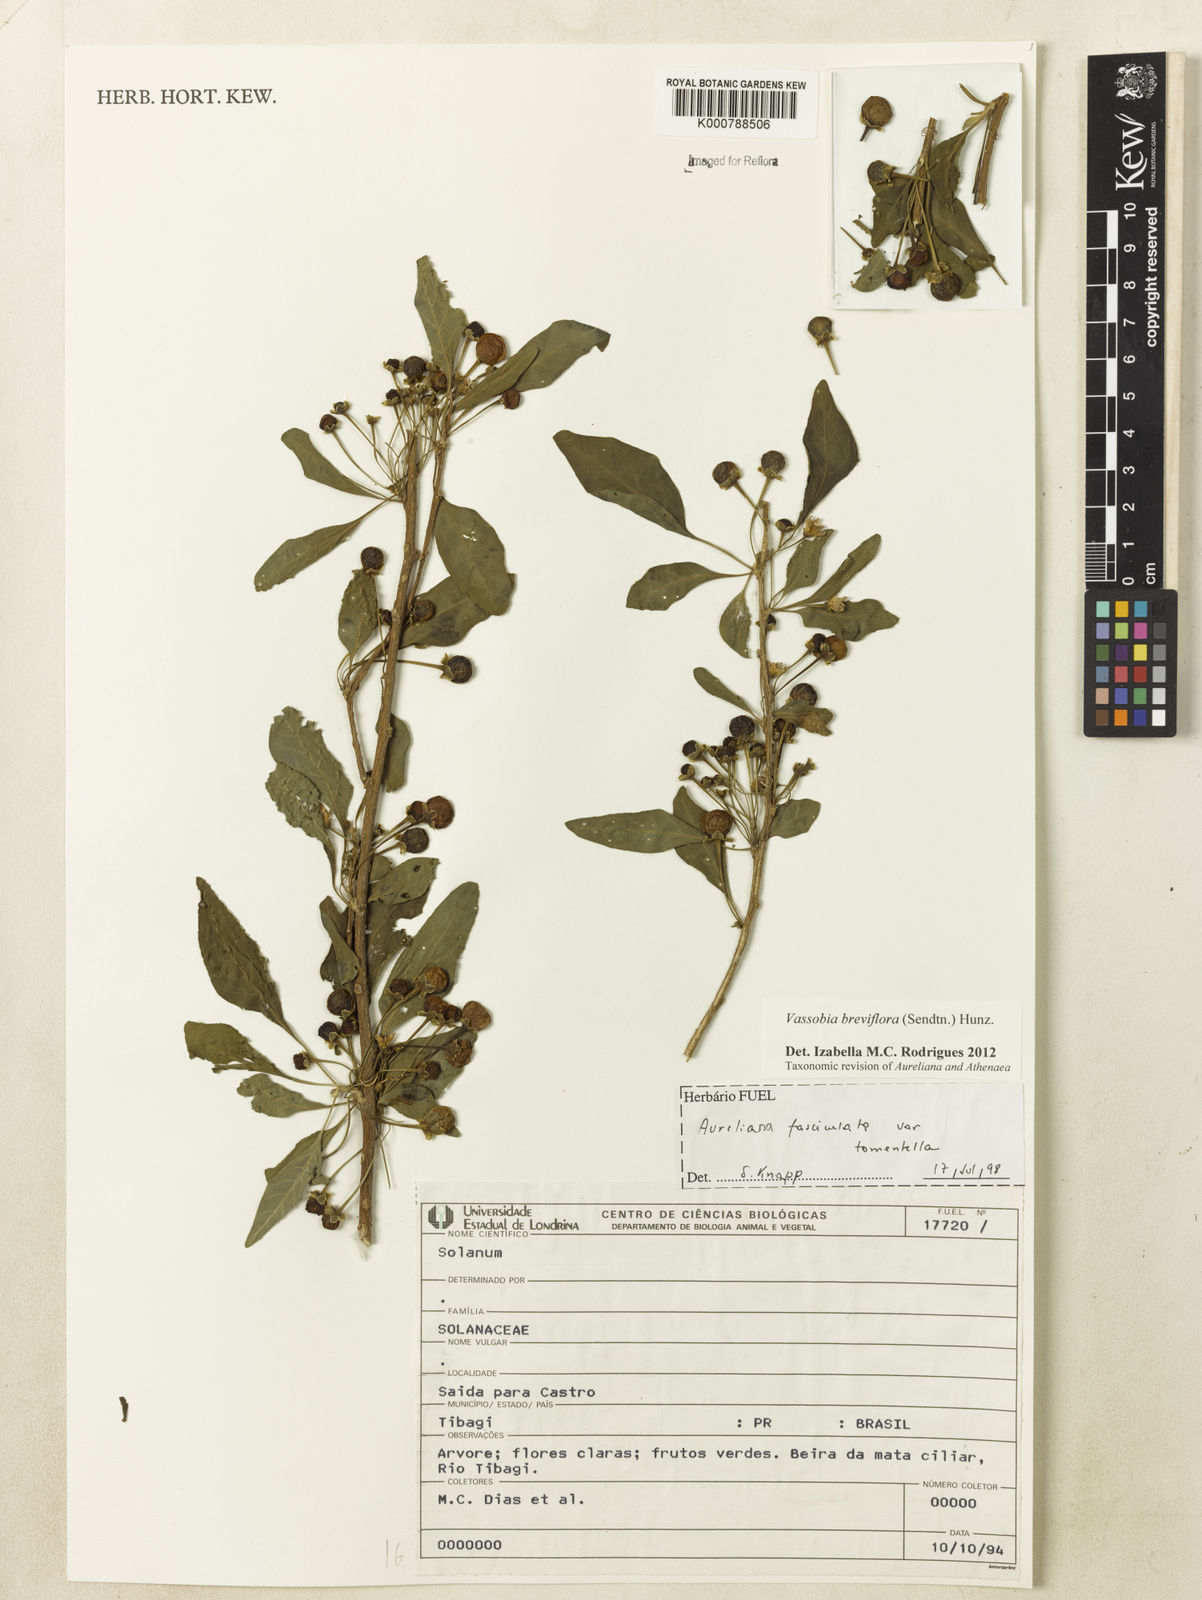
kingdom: Plantae
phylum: Tracheophyta
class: Magnoliopsida
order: Solanales
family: Solanaceae
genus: Vassobia
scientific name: Vassobia breviflora
